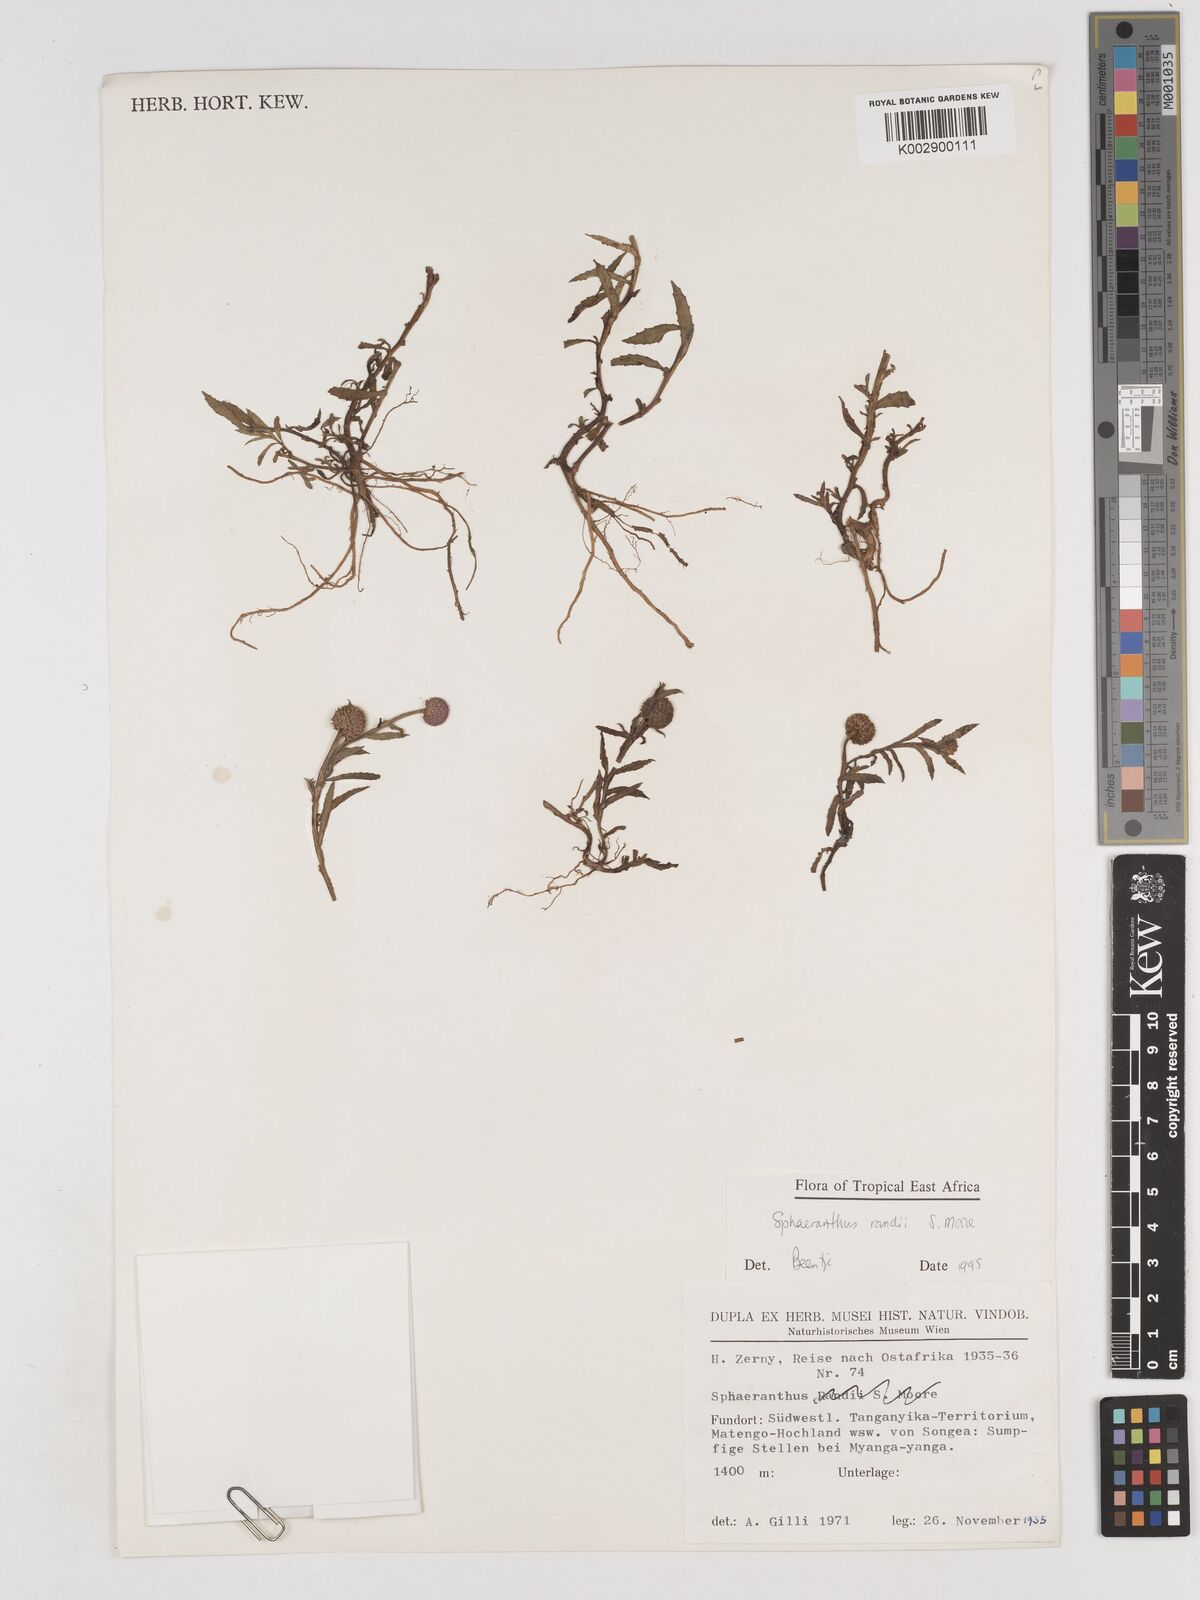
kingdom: Plantae
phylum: Tracheophyta
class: Magnoliopsida
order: Asterales
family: Asteraceae
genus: Sphaeranthus
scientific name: Sphaeranthus randii
